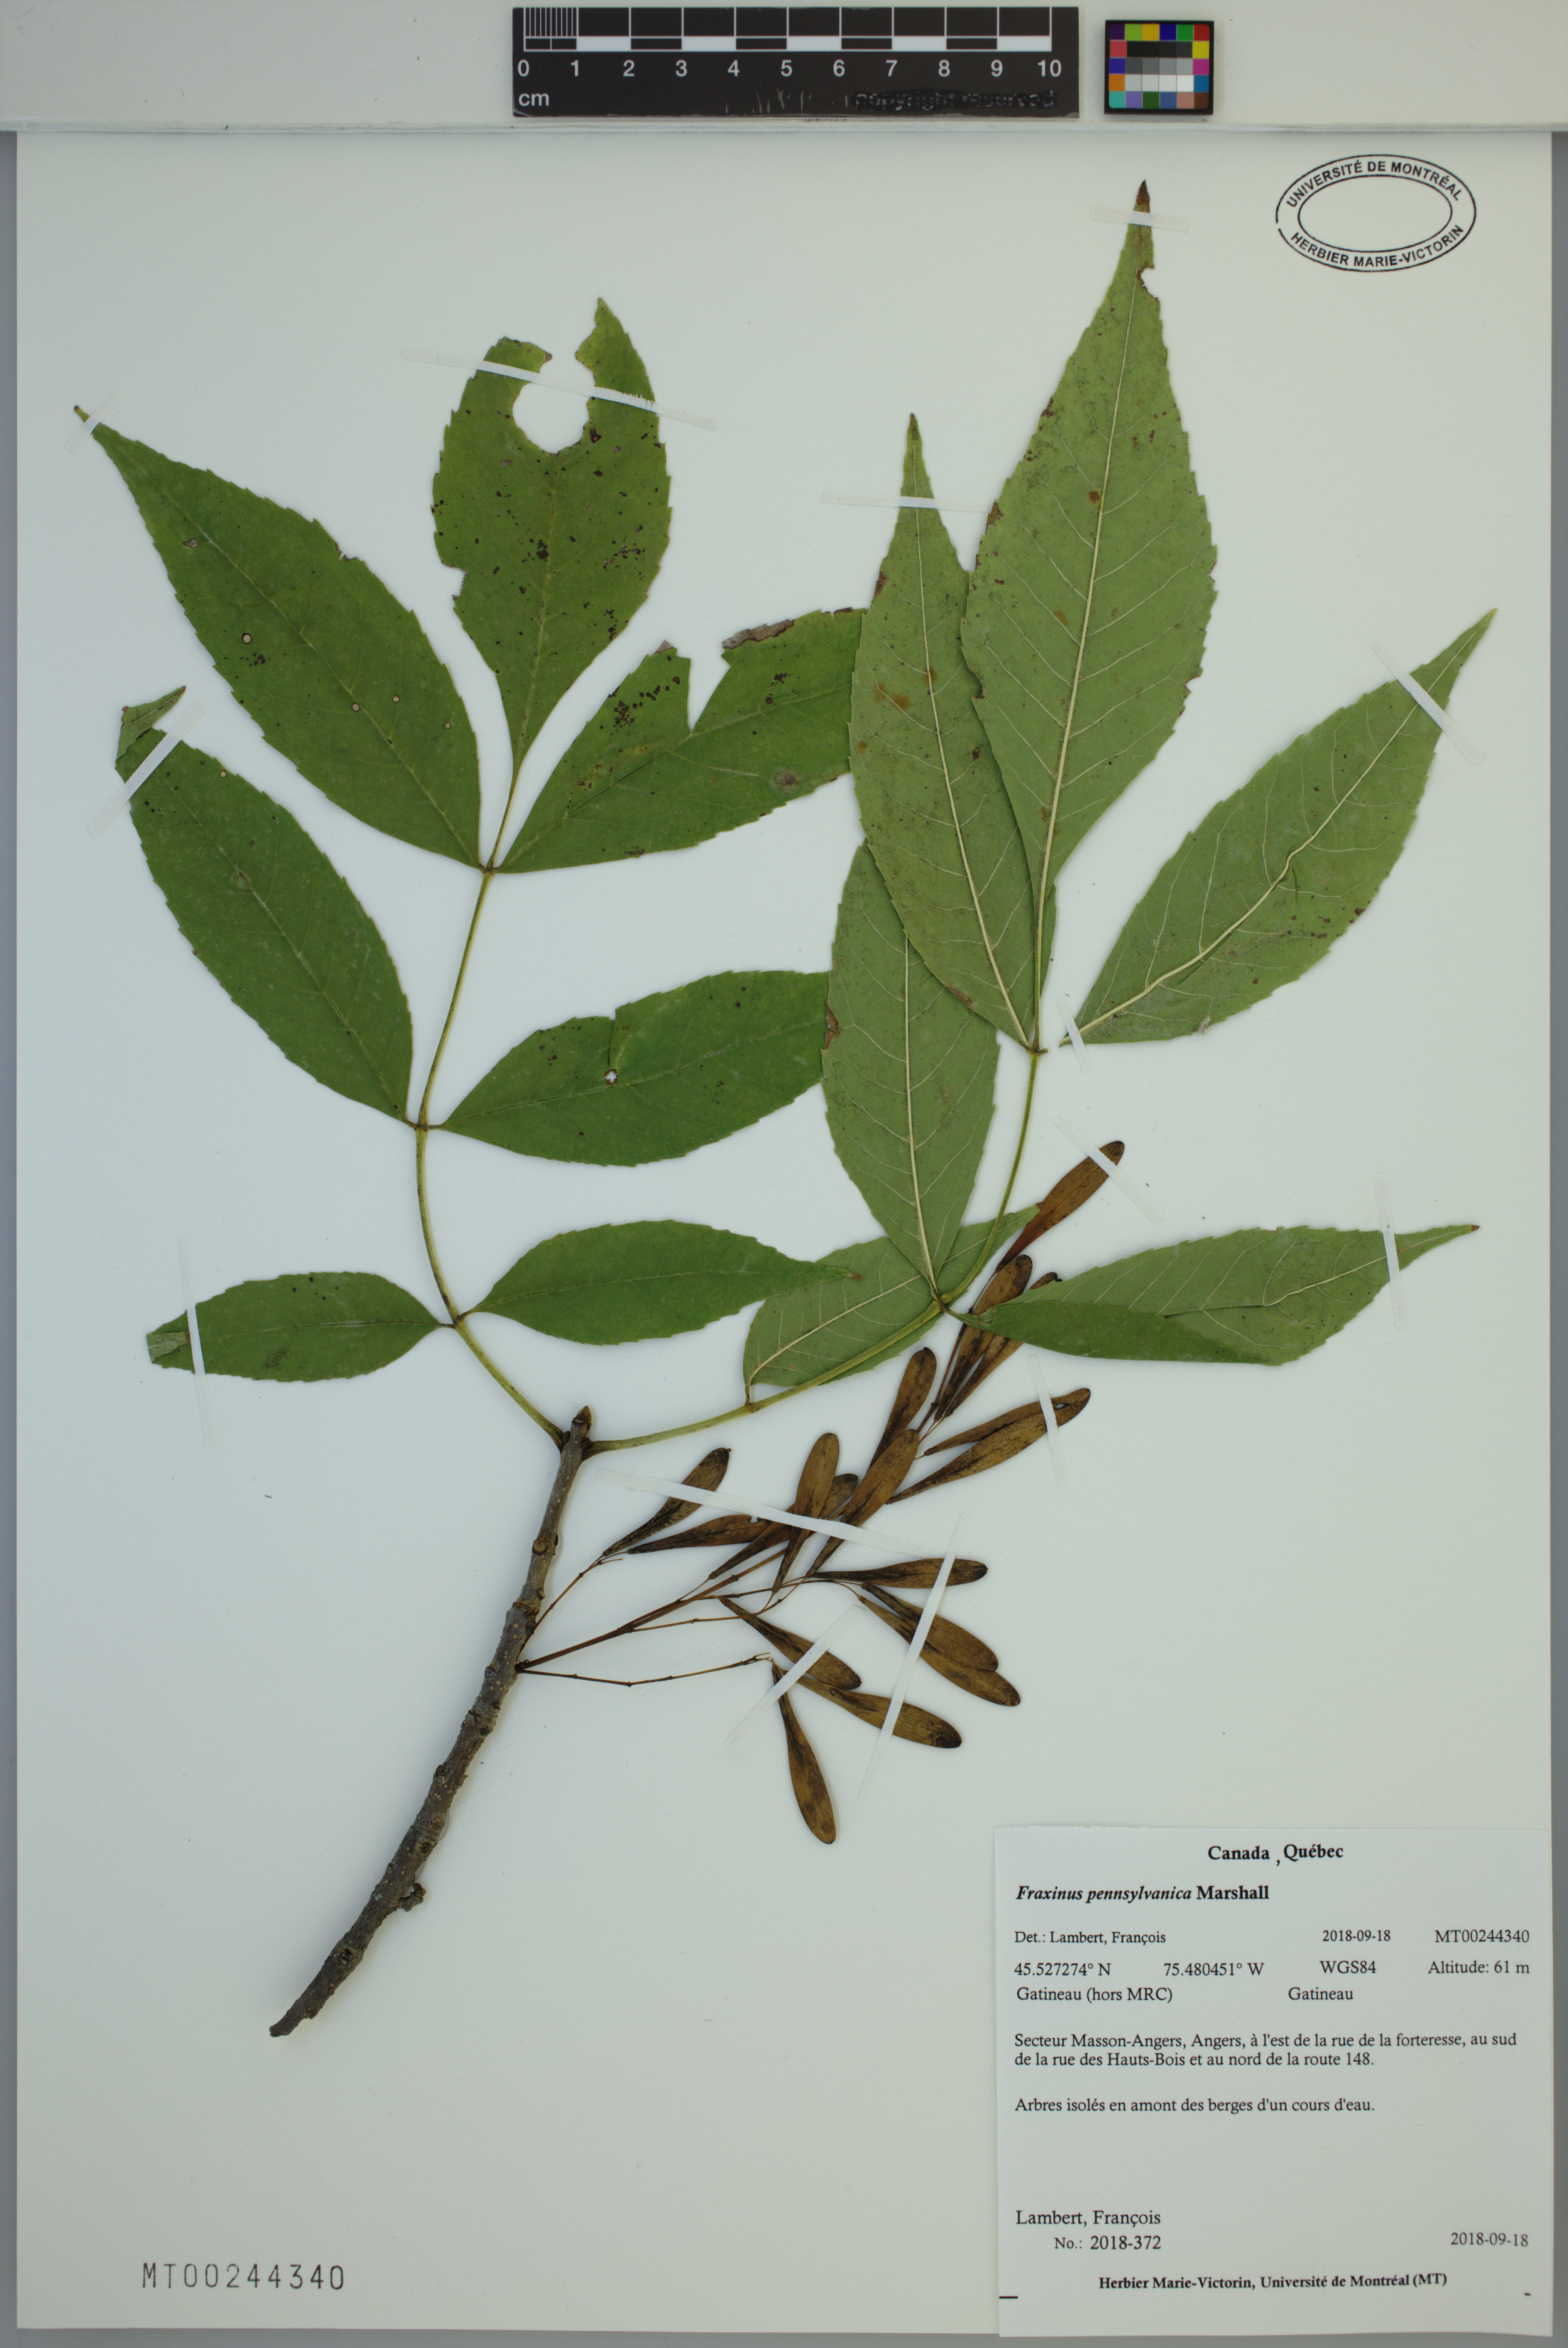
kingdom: Plantae
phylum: Tracheophyta
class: Magnoliopsida
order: Lamiales
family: Oleaceae
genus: Fraxinus
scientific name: Fraxinus pennsylvanica
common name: Green ash
